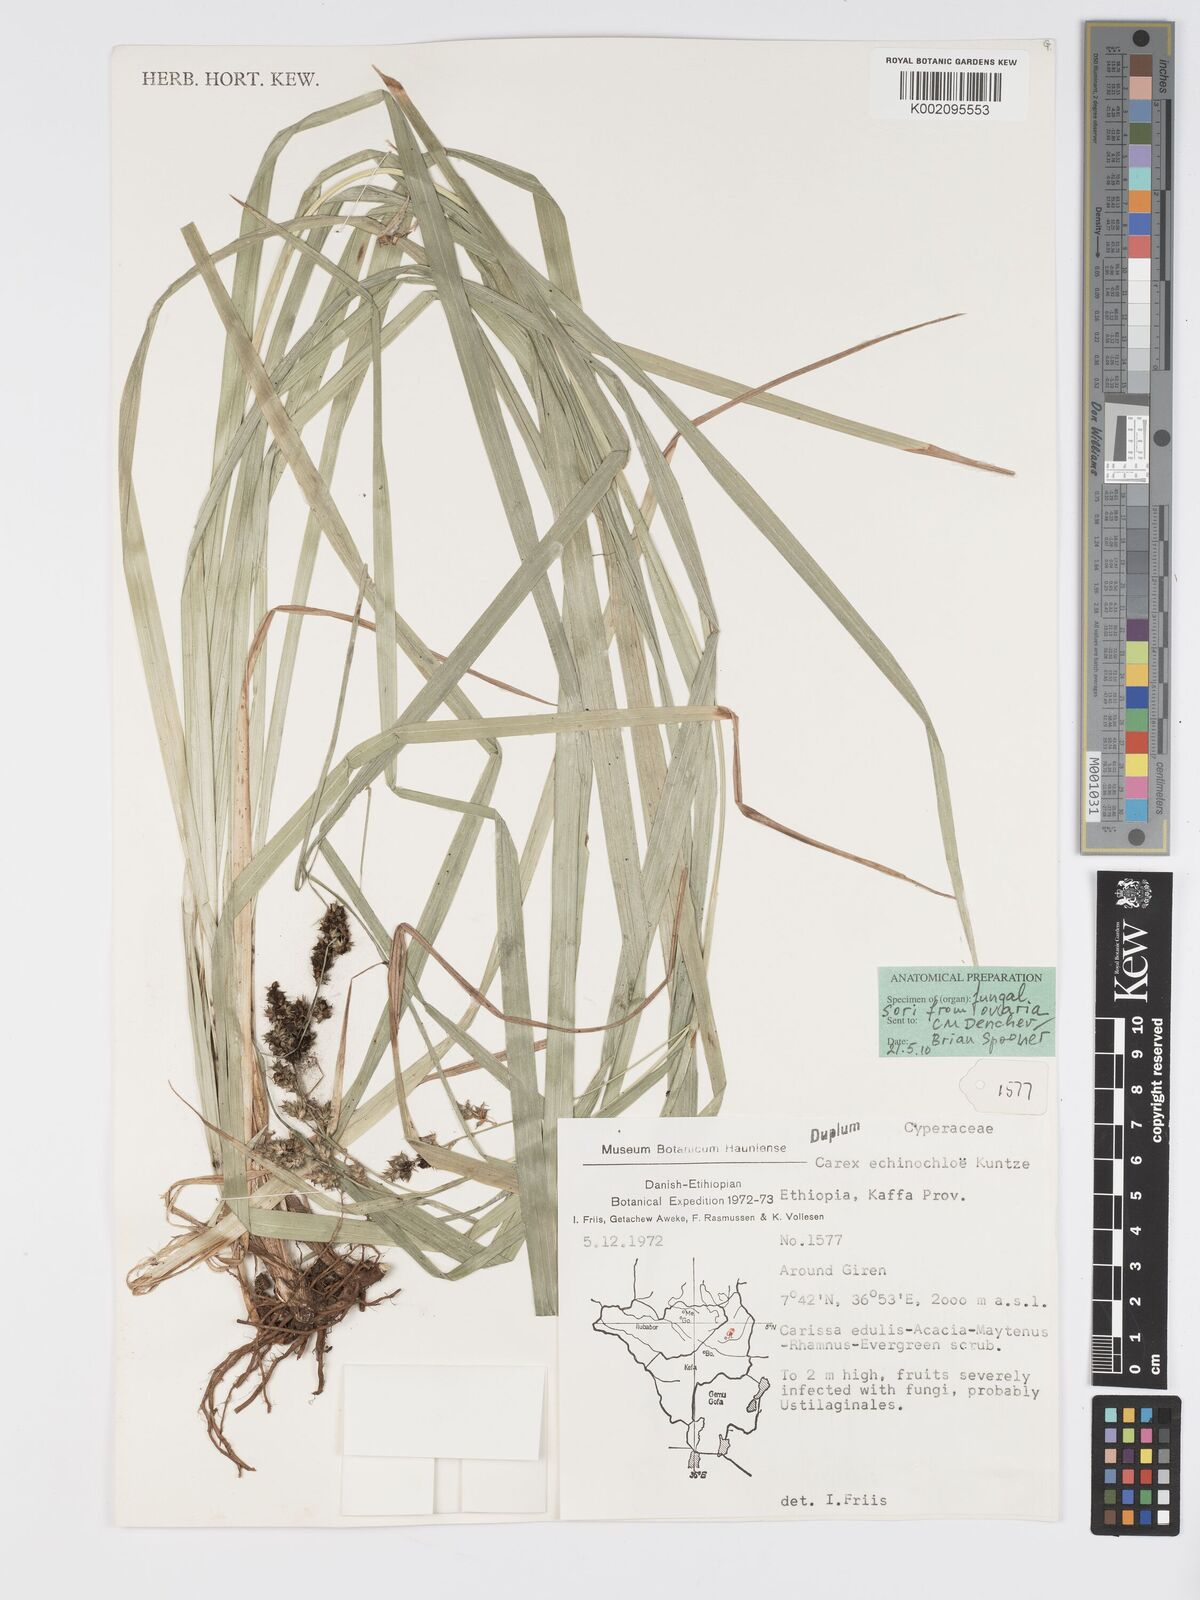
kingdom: Plantae
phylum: Tracheophyta
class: Liliopsida
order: Poales
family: Cyperaceae
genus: Carex
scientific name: Carex echinochloe
